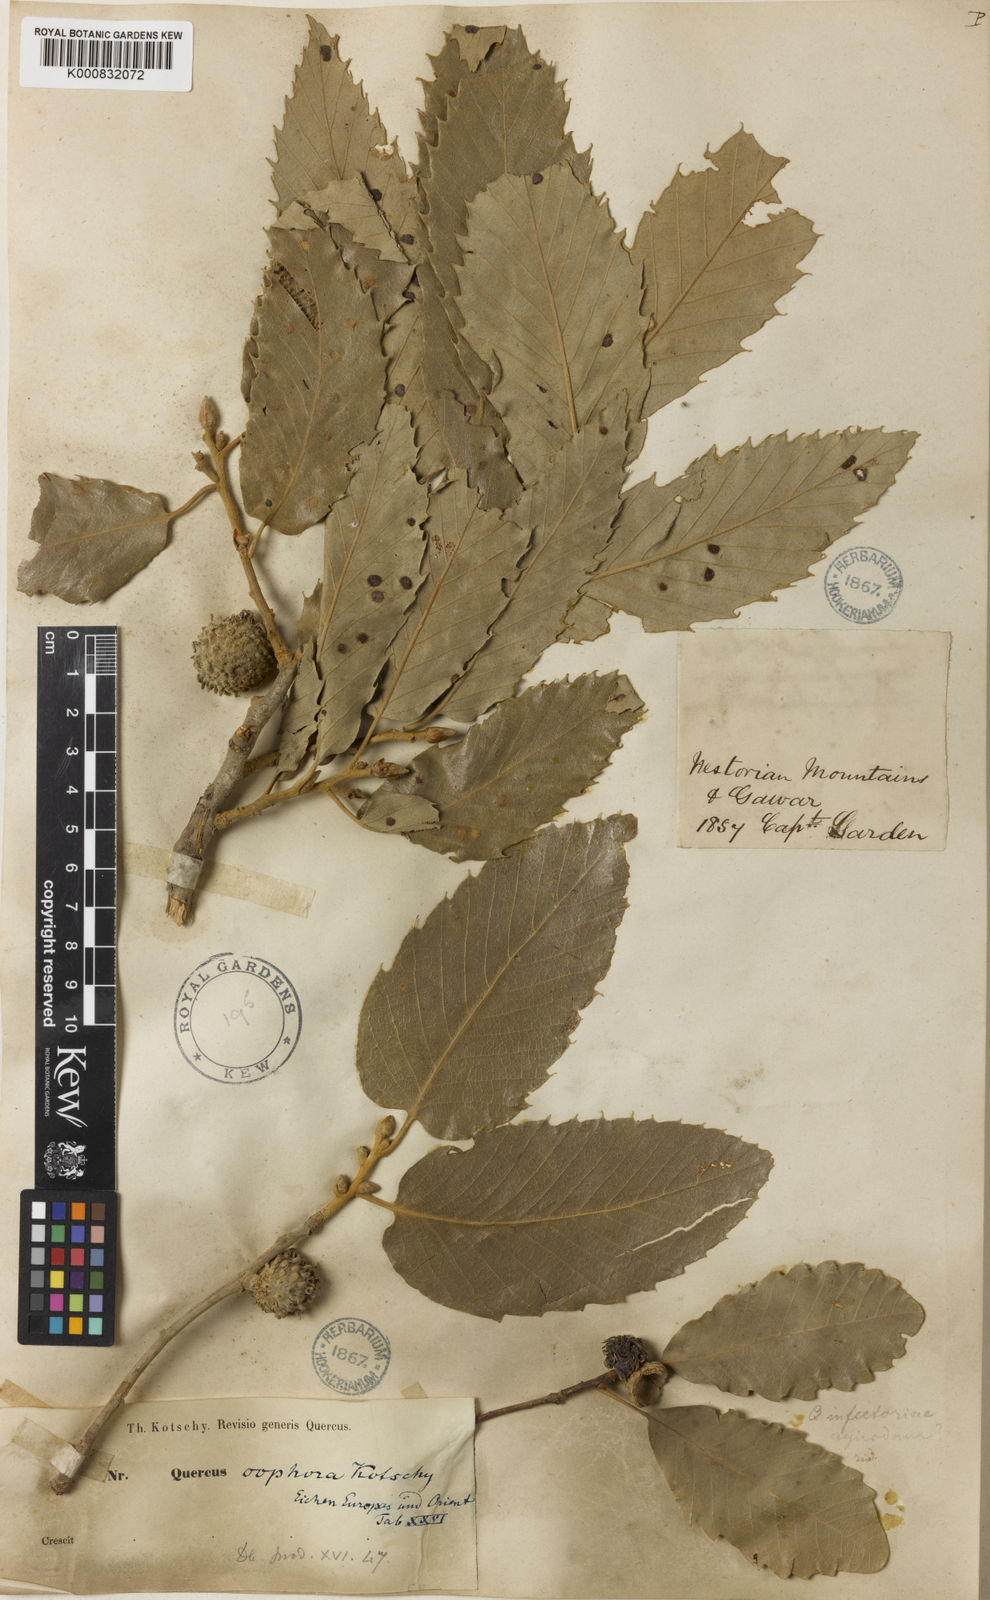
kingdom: Plantae
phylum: Tracheophyta
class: Magnoliopsida
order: Fagales
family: Fagaceae
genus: Quercus
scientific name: Quercus libani
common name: Lebanon oak
